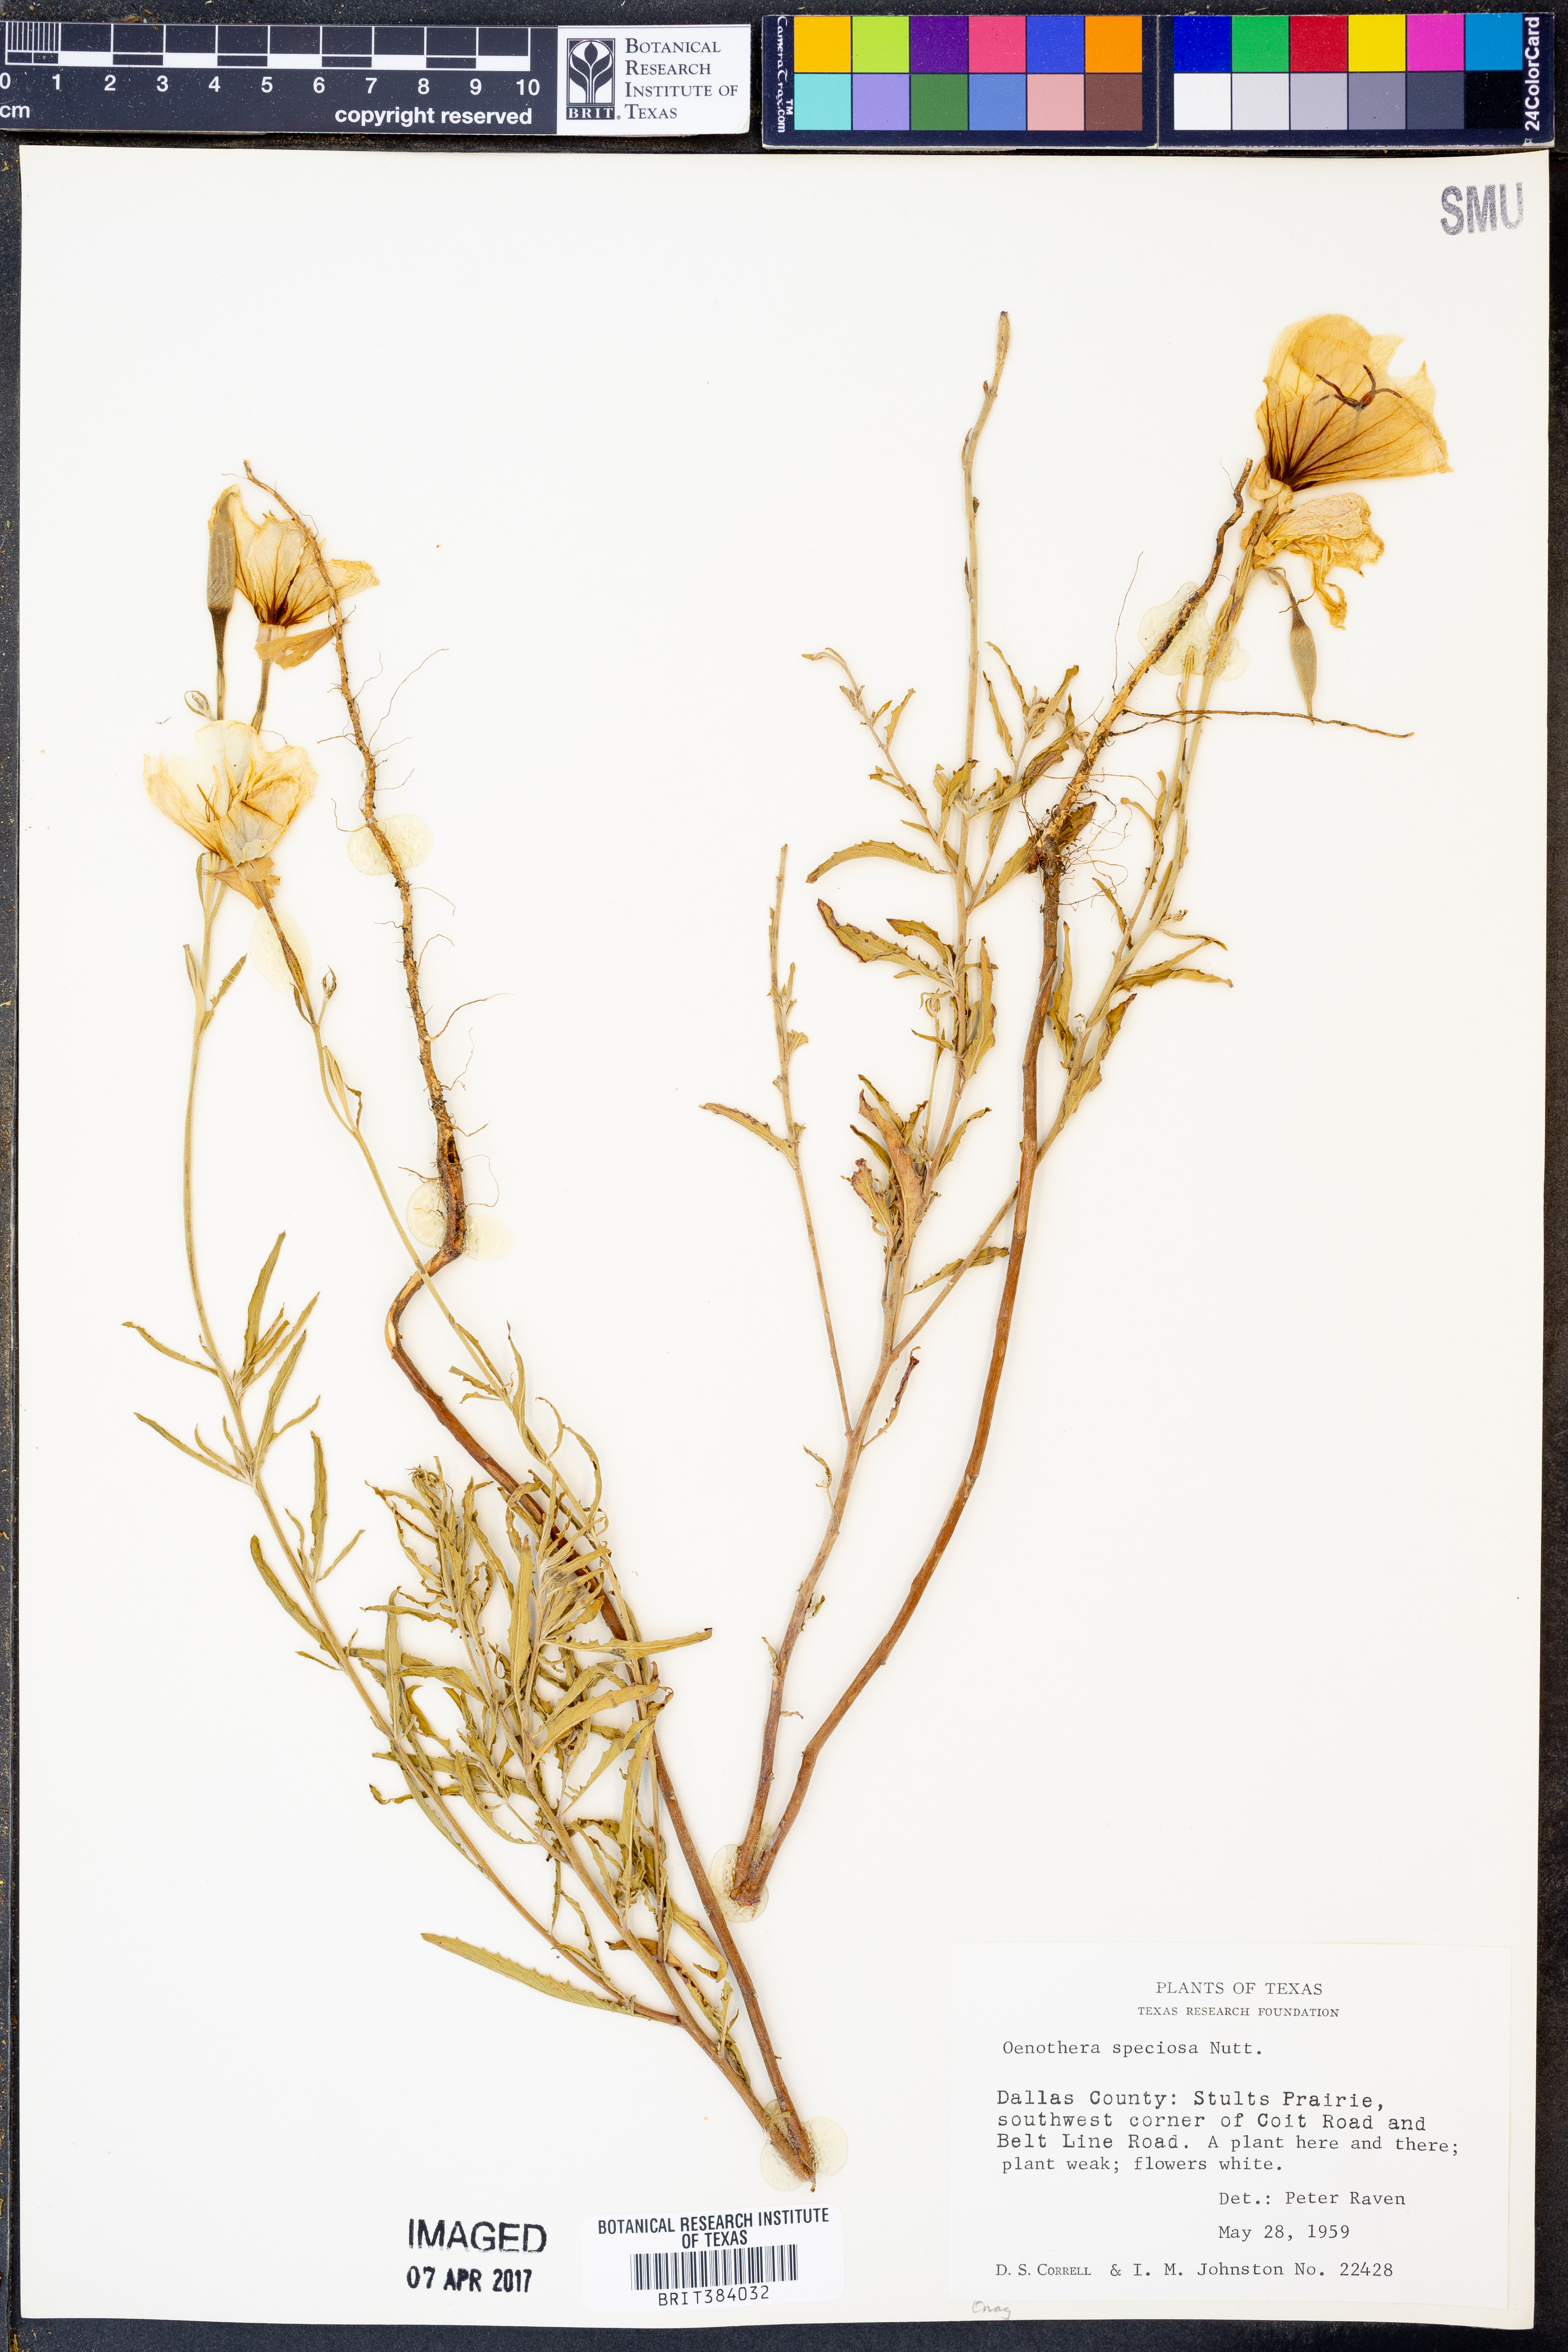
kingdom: Plantae
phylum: Tracheophyta
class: Magnoliopsida
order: Myrtales
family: Onagraceae
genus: Oenothera
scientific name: Oenothera speciosa
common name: White evening-primrose
